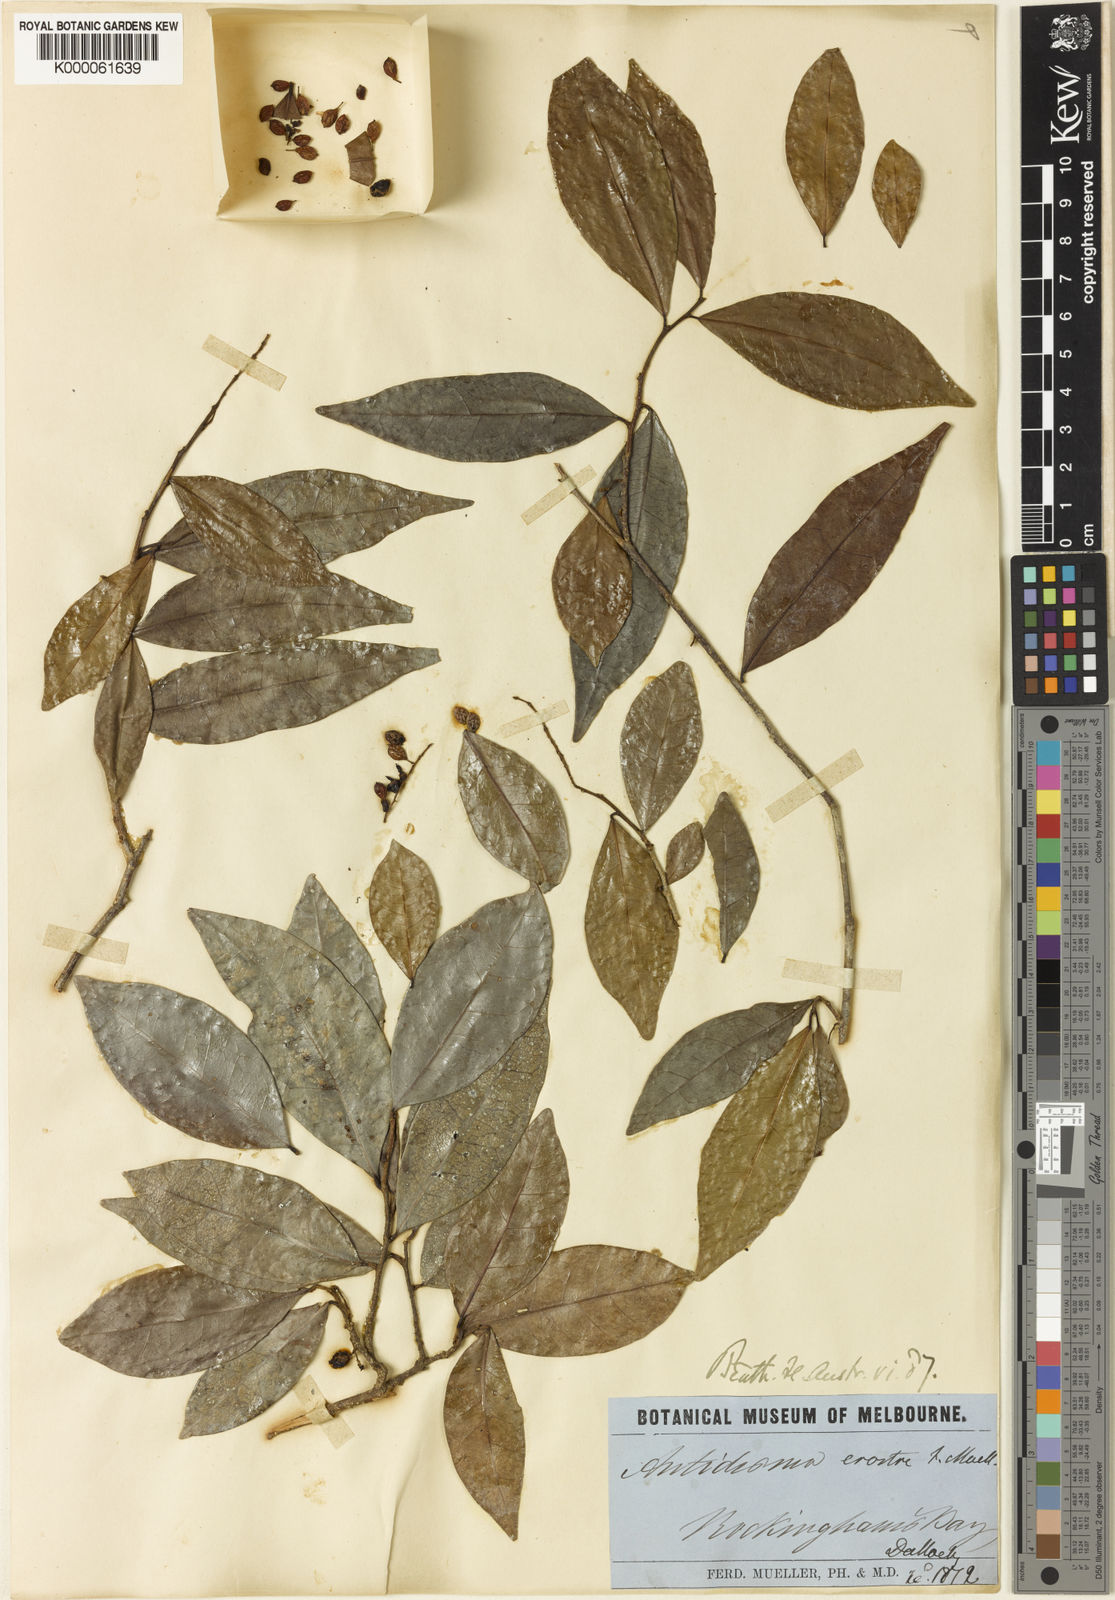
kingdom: Plantae
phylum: Tracheophyta
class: Magnoliopsida
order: Malpighiales
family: Phyllanthaceae
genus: Antidesma
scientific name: Antidesma erostre
